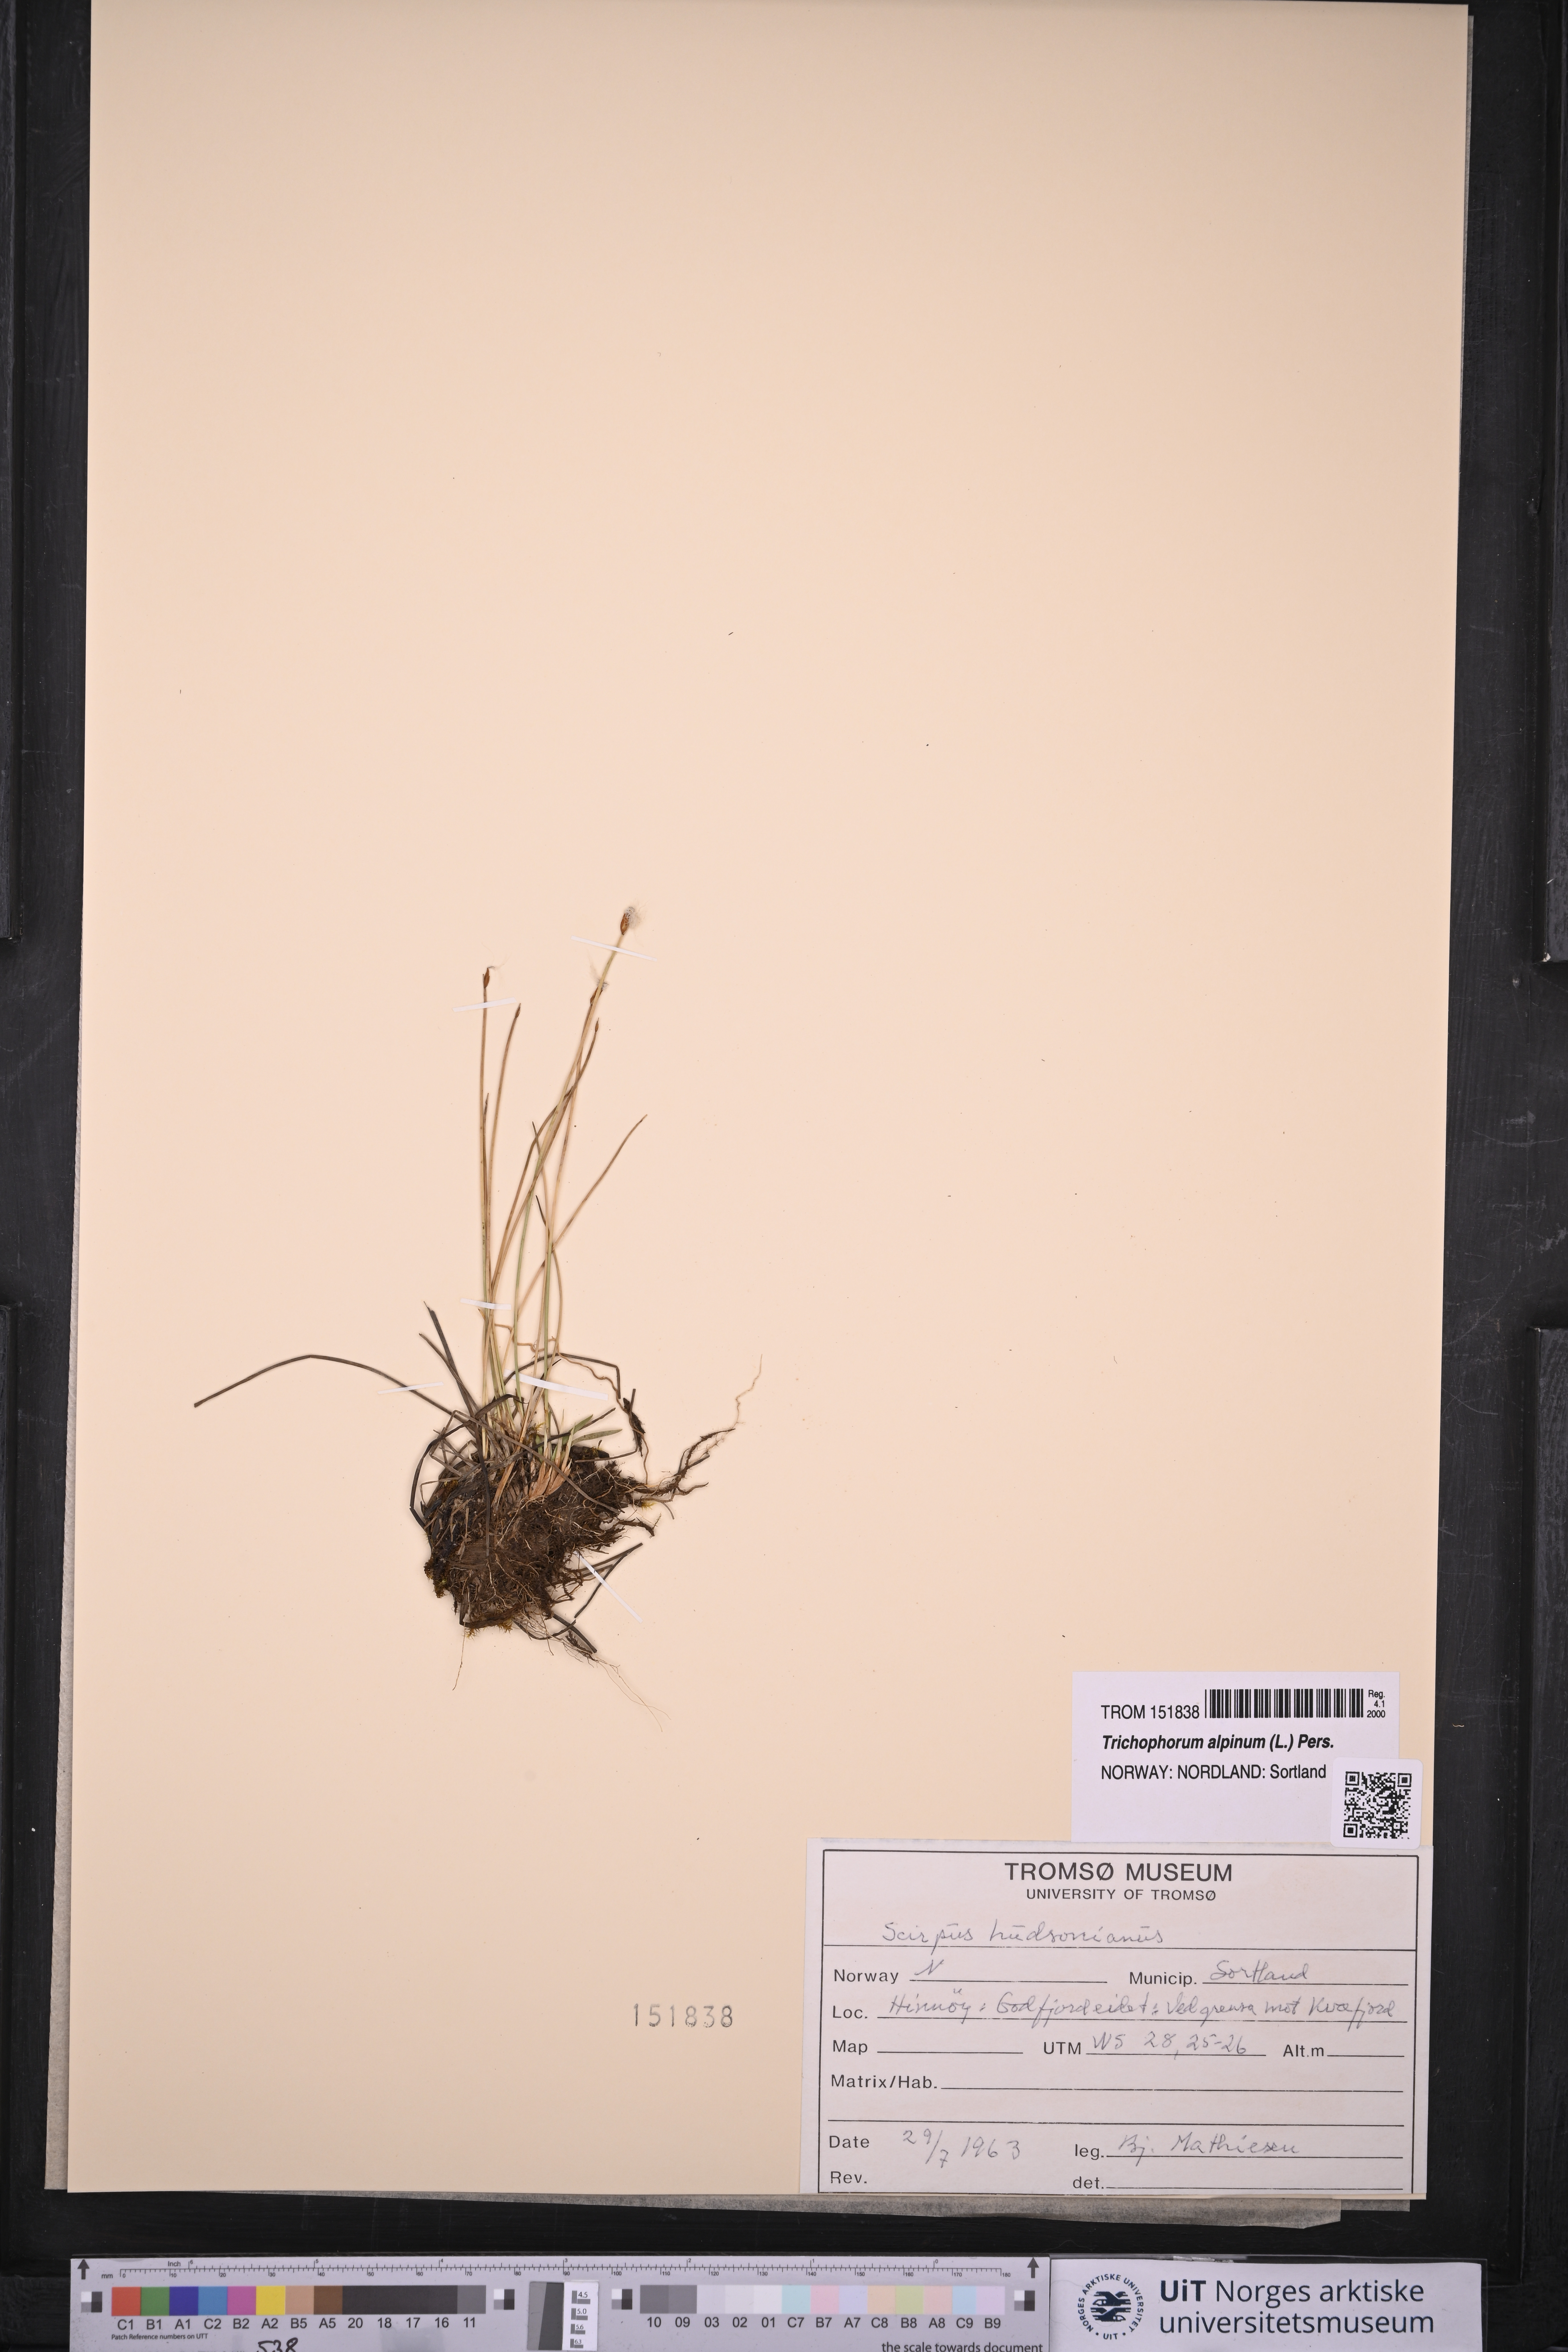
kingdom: Plantae
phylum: Tracheophyta
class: Liliopsida
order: Poales
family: Cyperaceae
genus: Trichophorum
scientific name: Trichophorum alpinum
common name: Alpine bulrush
